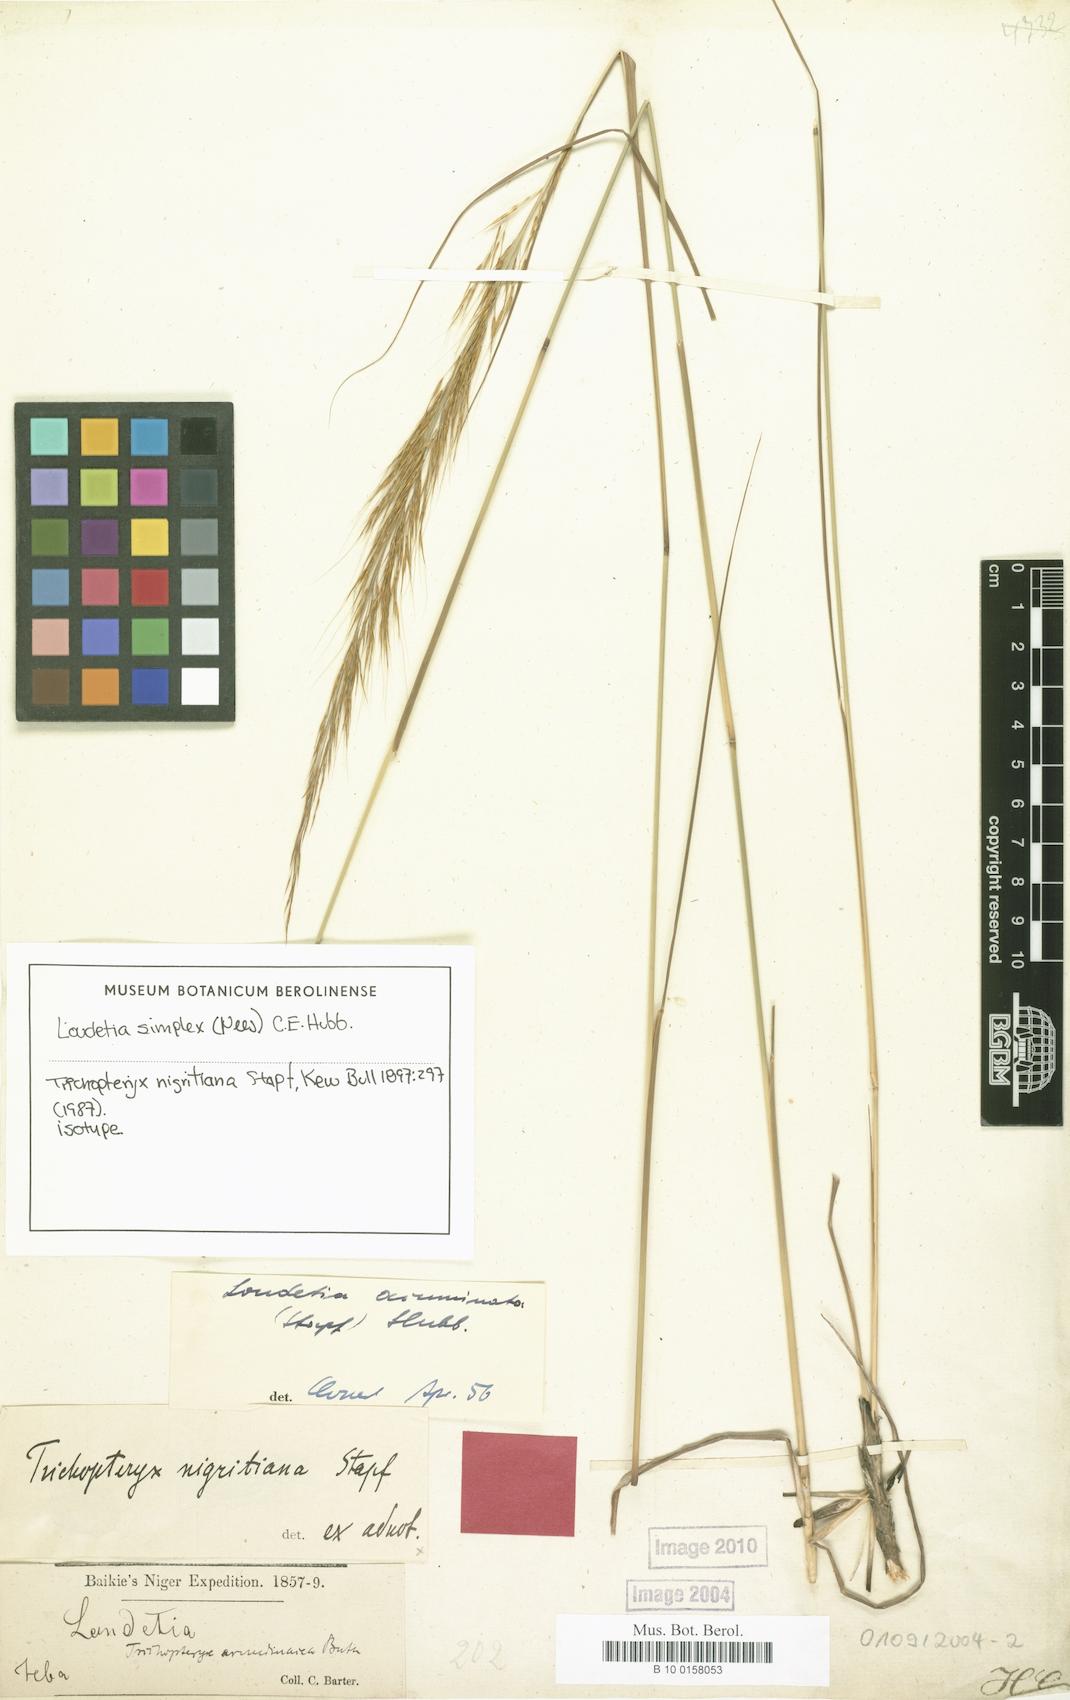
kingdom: Plantae
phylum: Tracheophyta
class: Liliopsida
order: Poales
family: Poaceae
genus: Loudetia
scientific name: Loudetia simplex
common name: Common russet grass
